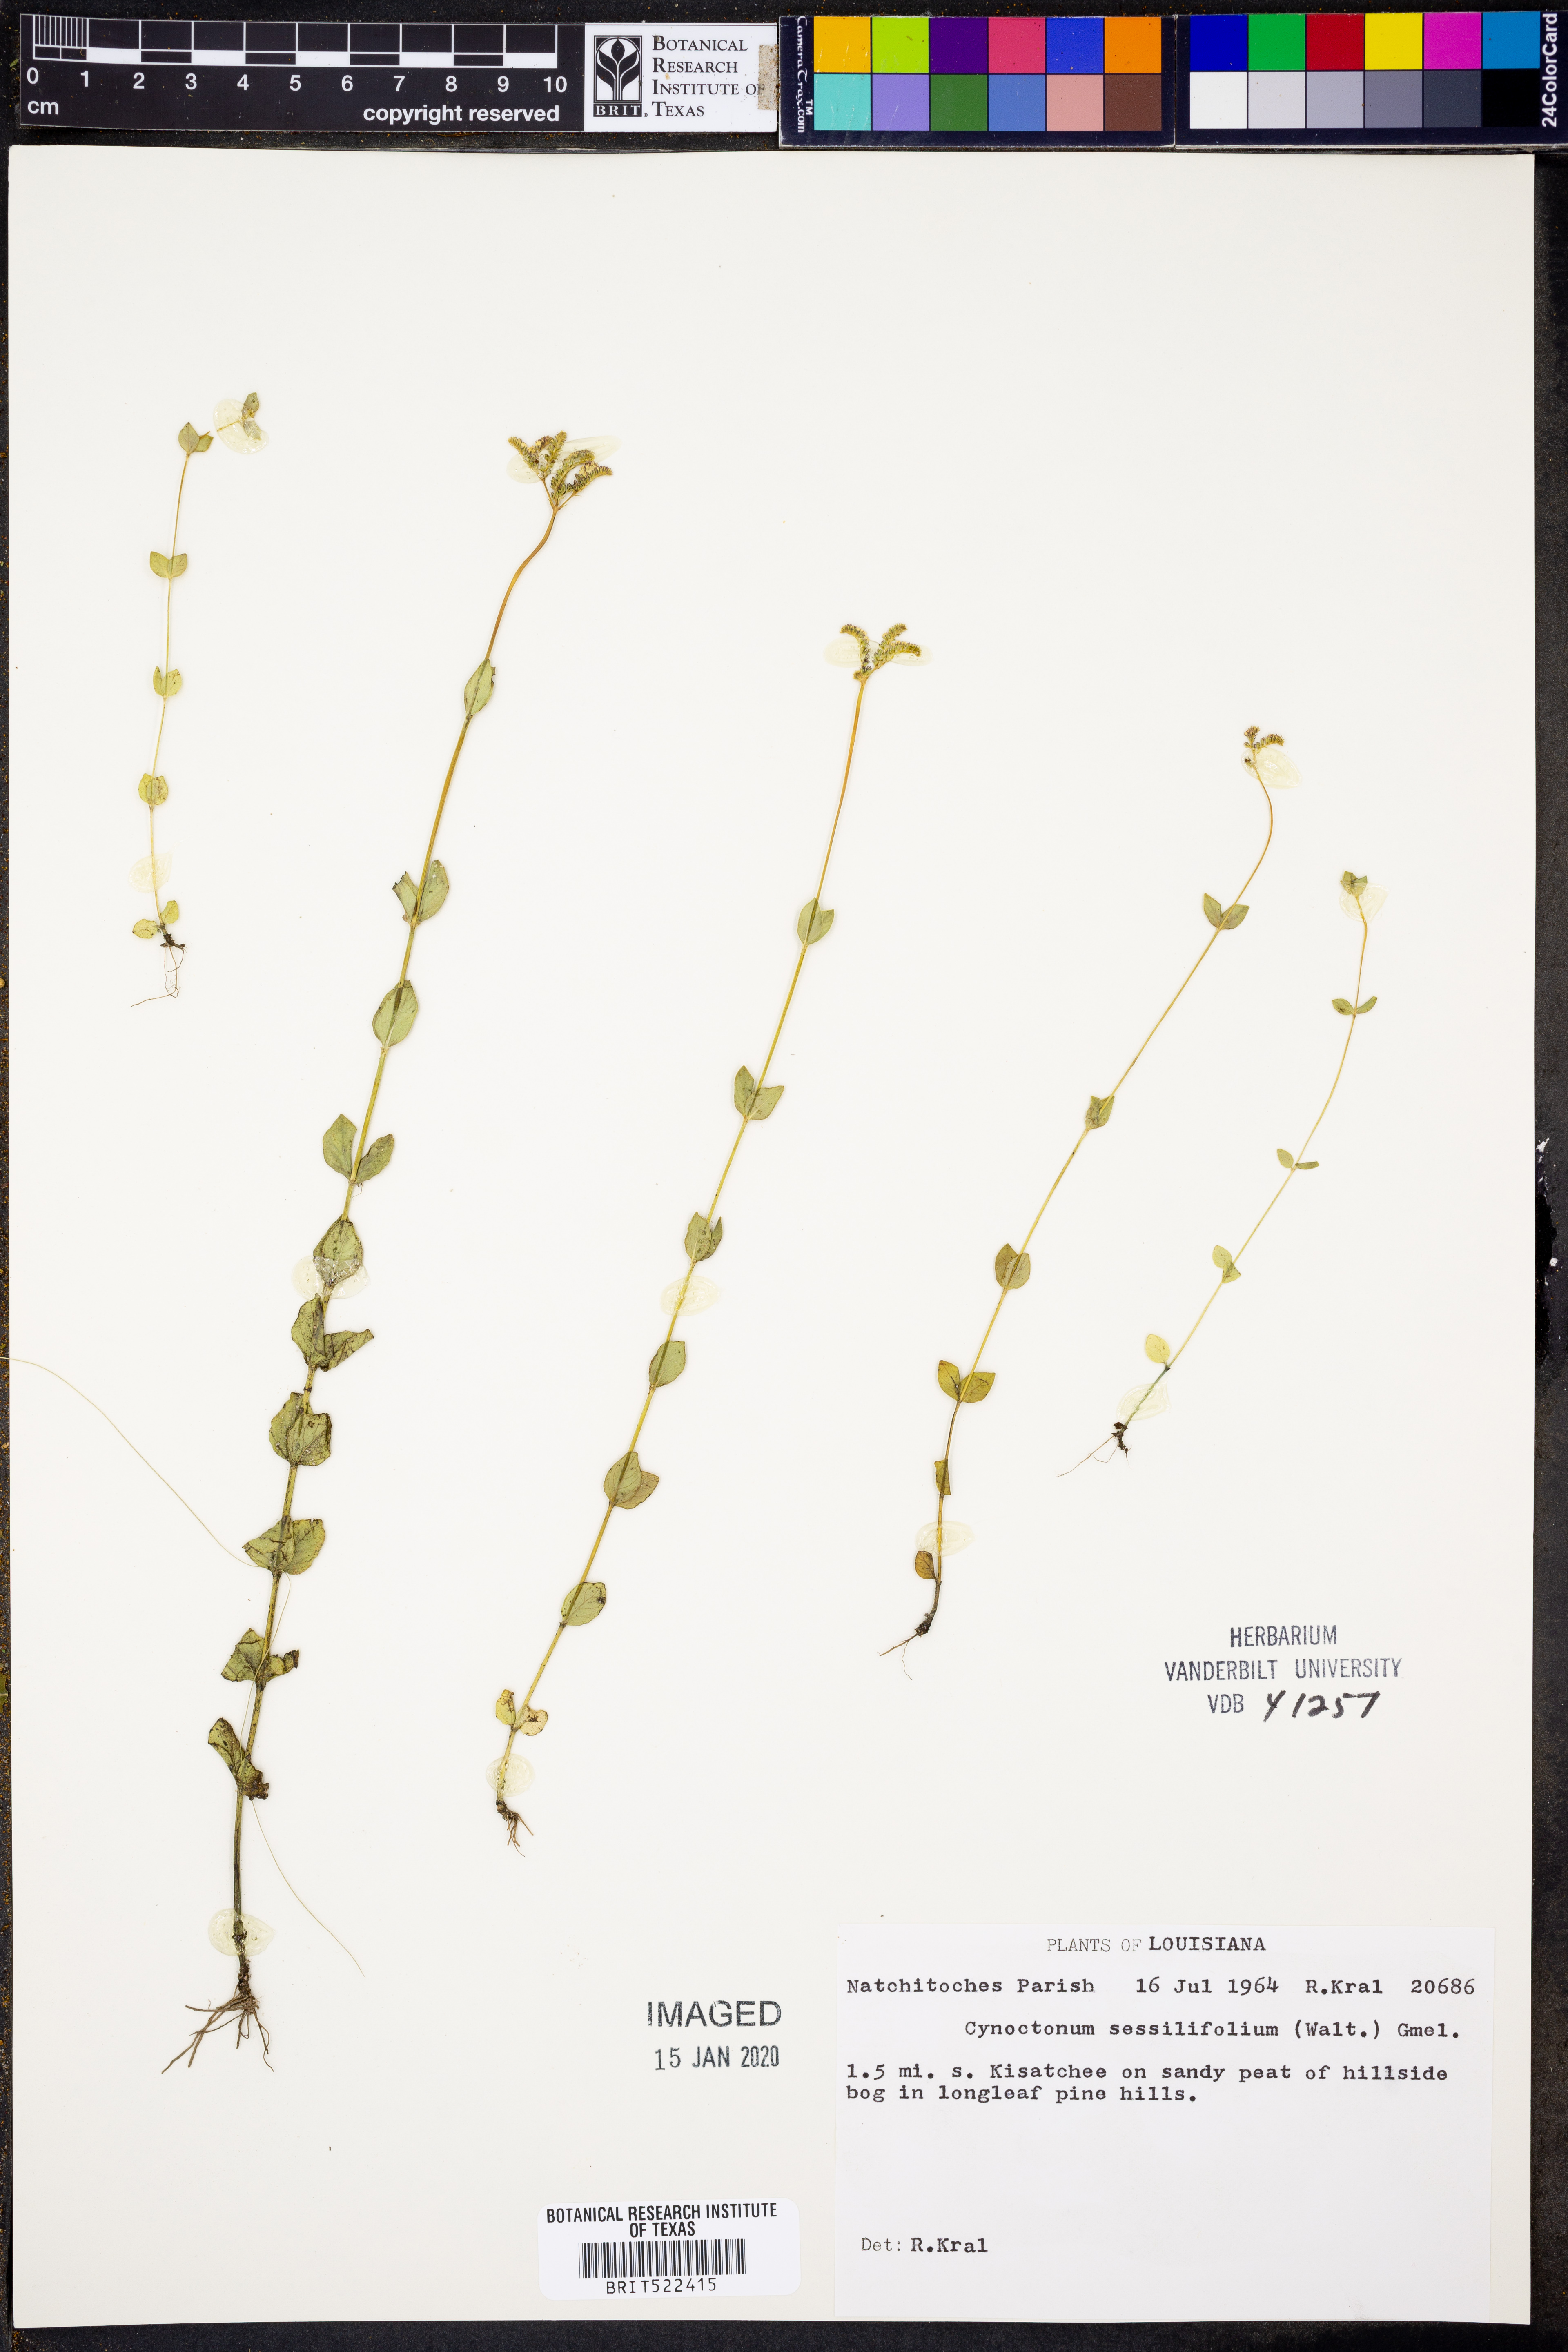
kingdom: Plantae
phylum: Tracheophyta
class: Magnoliopsida
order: Gentianales
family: Loganiaceae
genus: Mitreola
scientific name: Mitreola sessilifolia
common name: Swamp hornpod
